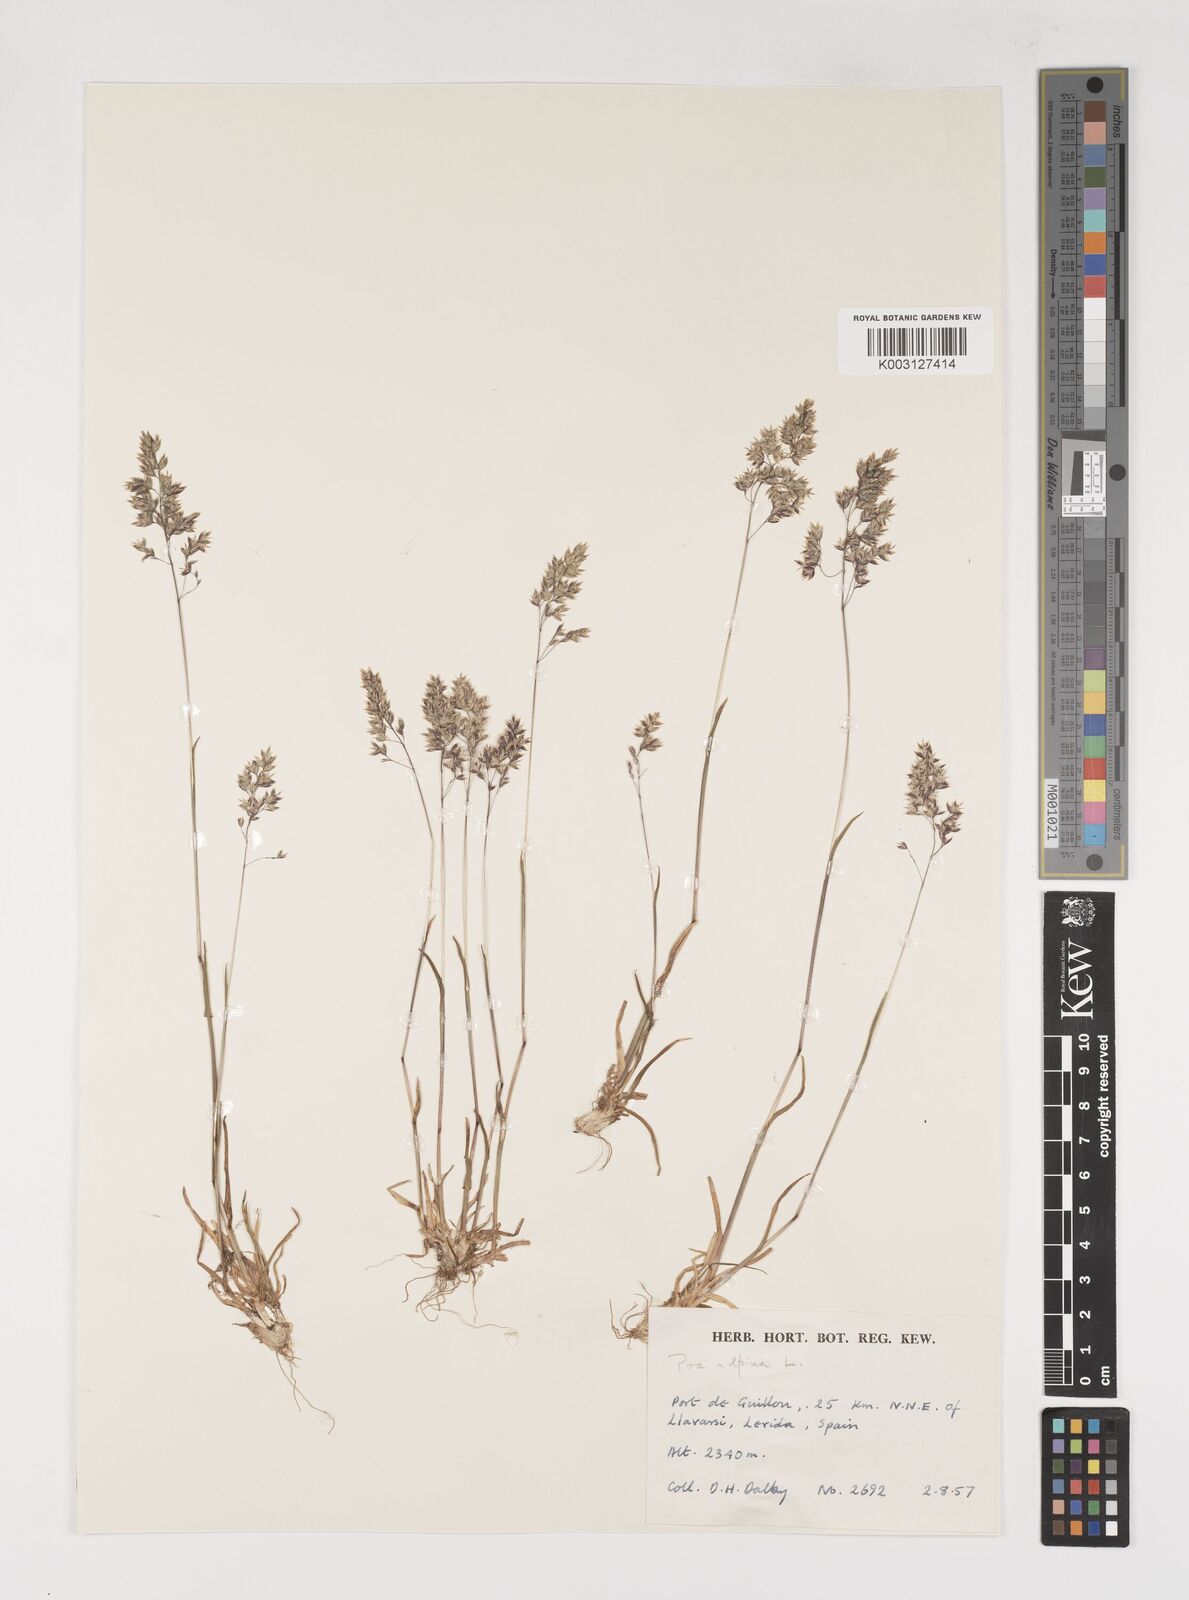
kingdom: Plantae
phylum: Tracheophyta
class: Liliopsida
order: Poales
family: Poaceae
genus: Poa
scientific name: Poa alpina
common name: Alpine bluegrass
